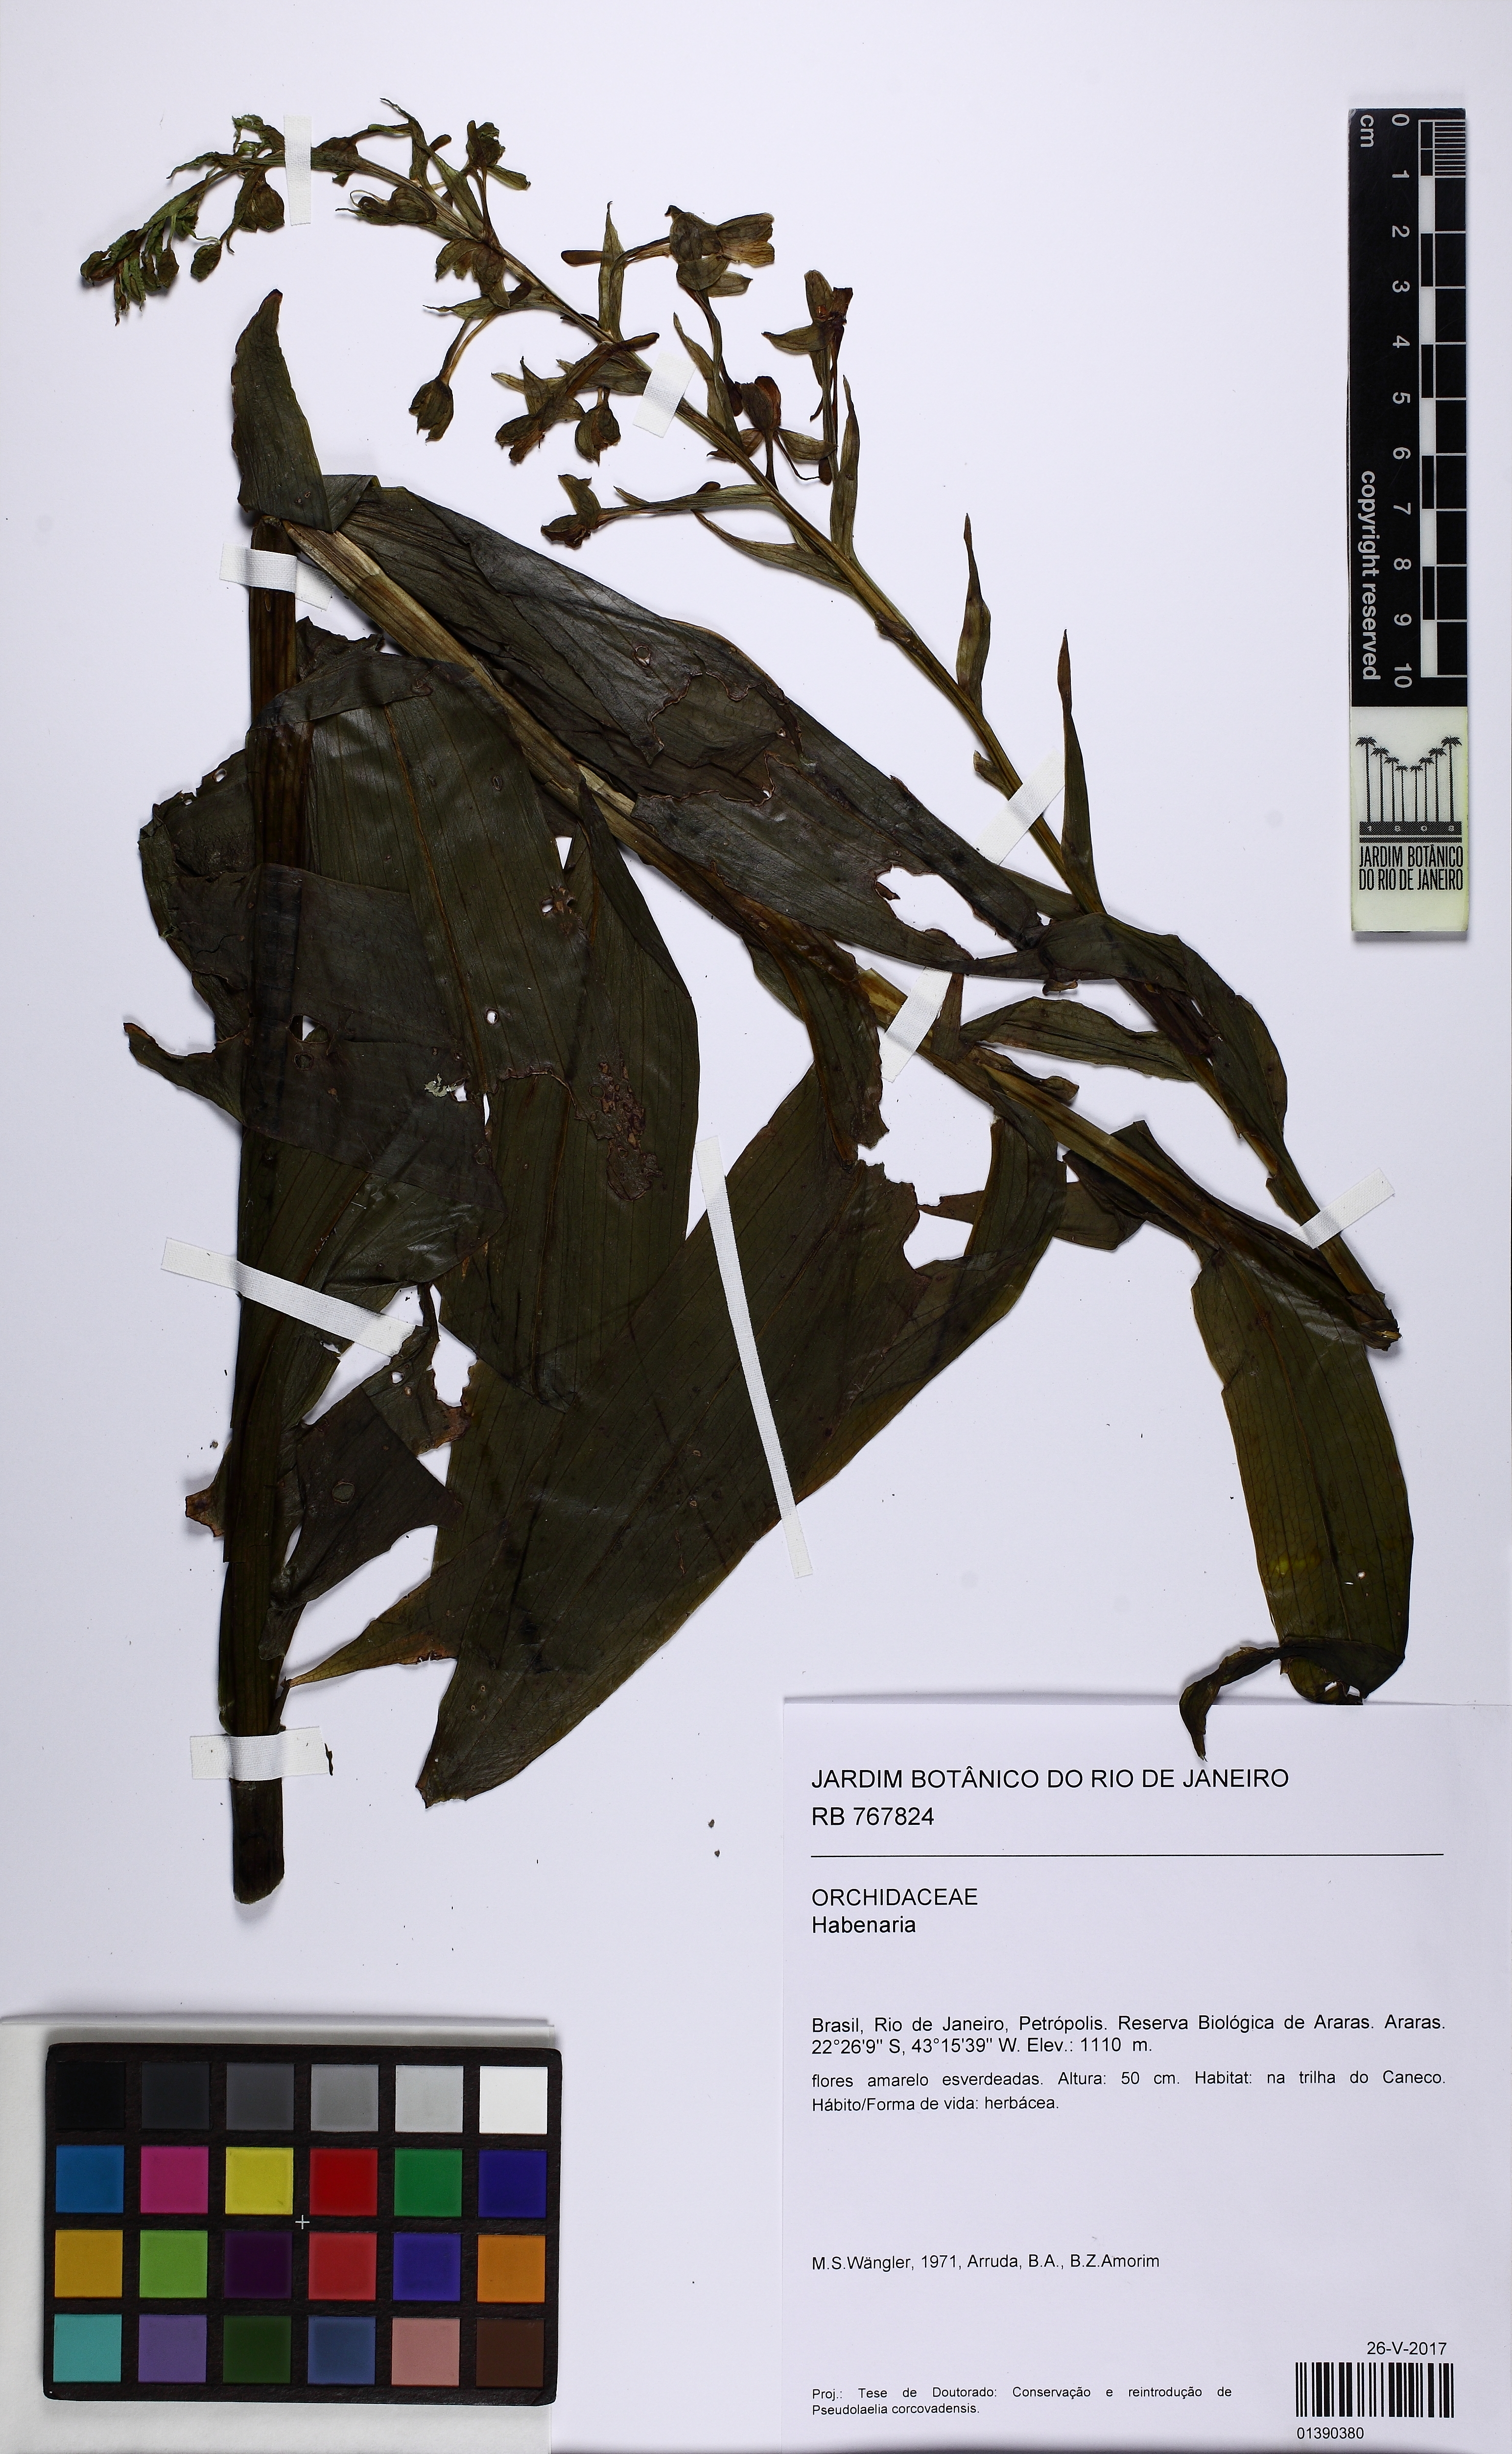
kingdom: Plantae
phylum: Tracheophyta
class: Liliopsida
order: Asparagales
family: Orchidaceae
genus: Habenaria
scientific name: Habenaria petalodes
